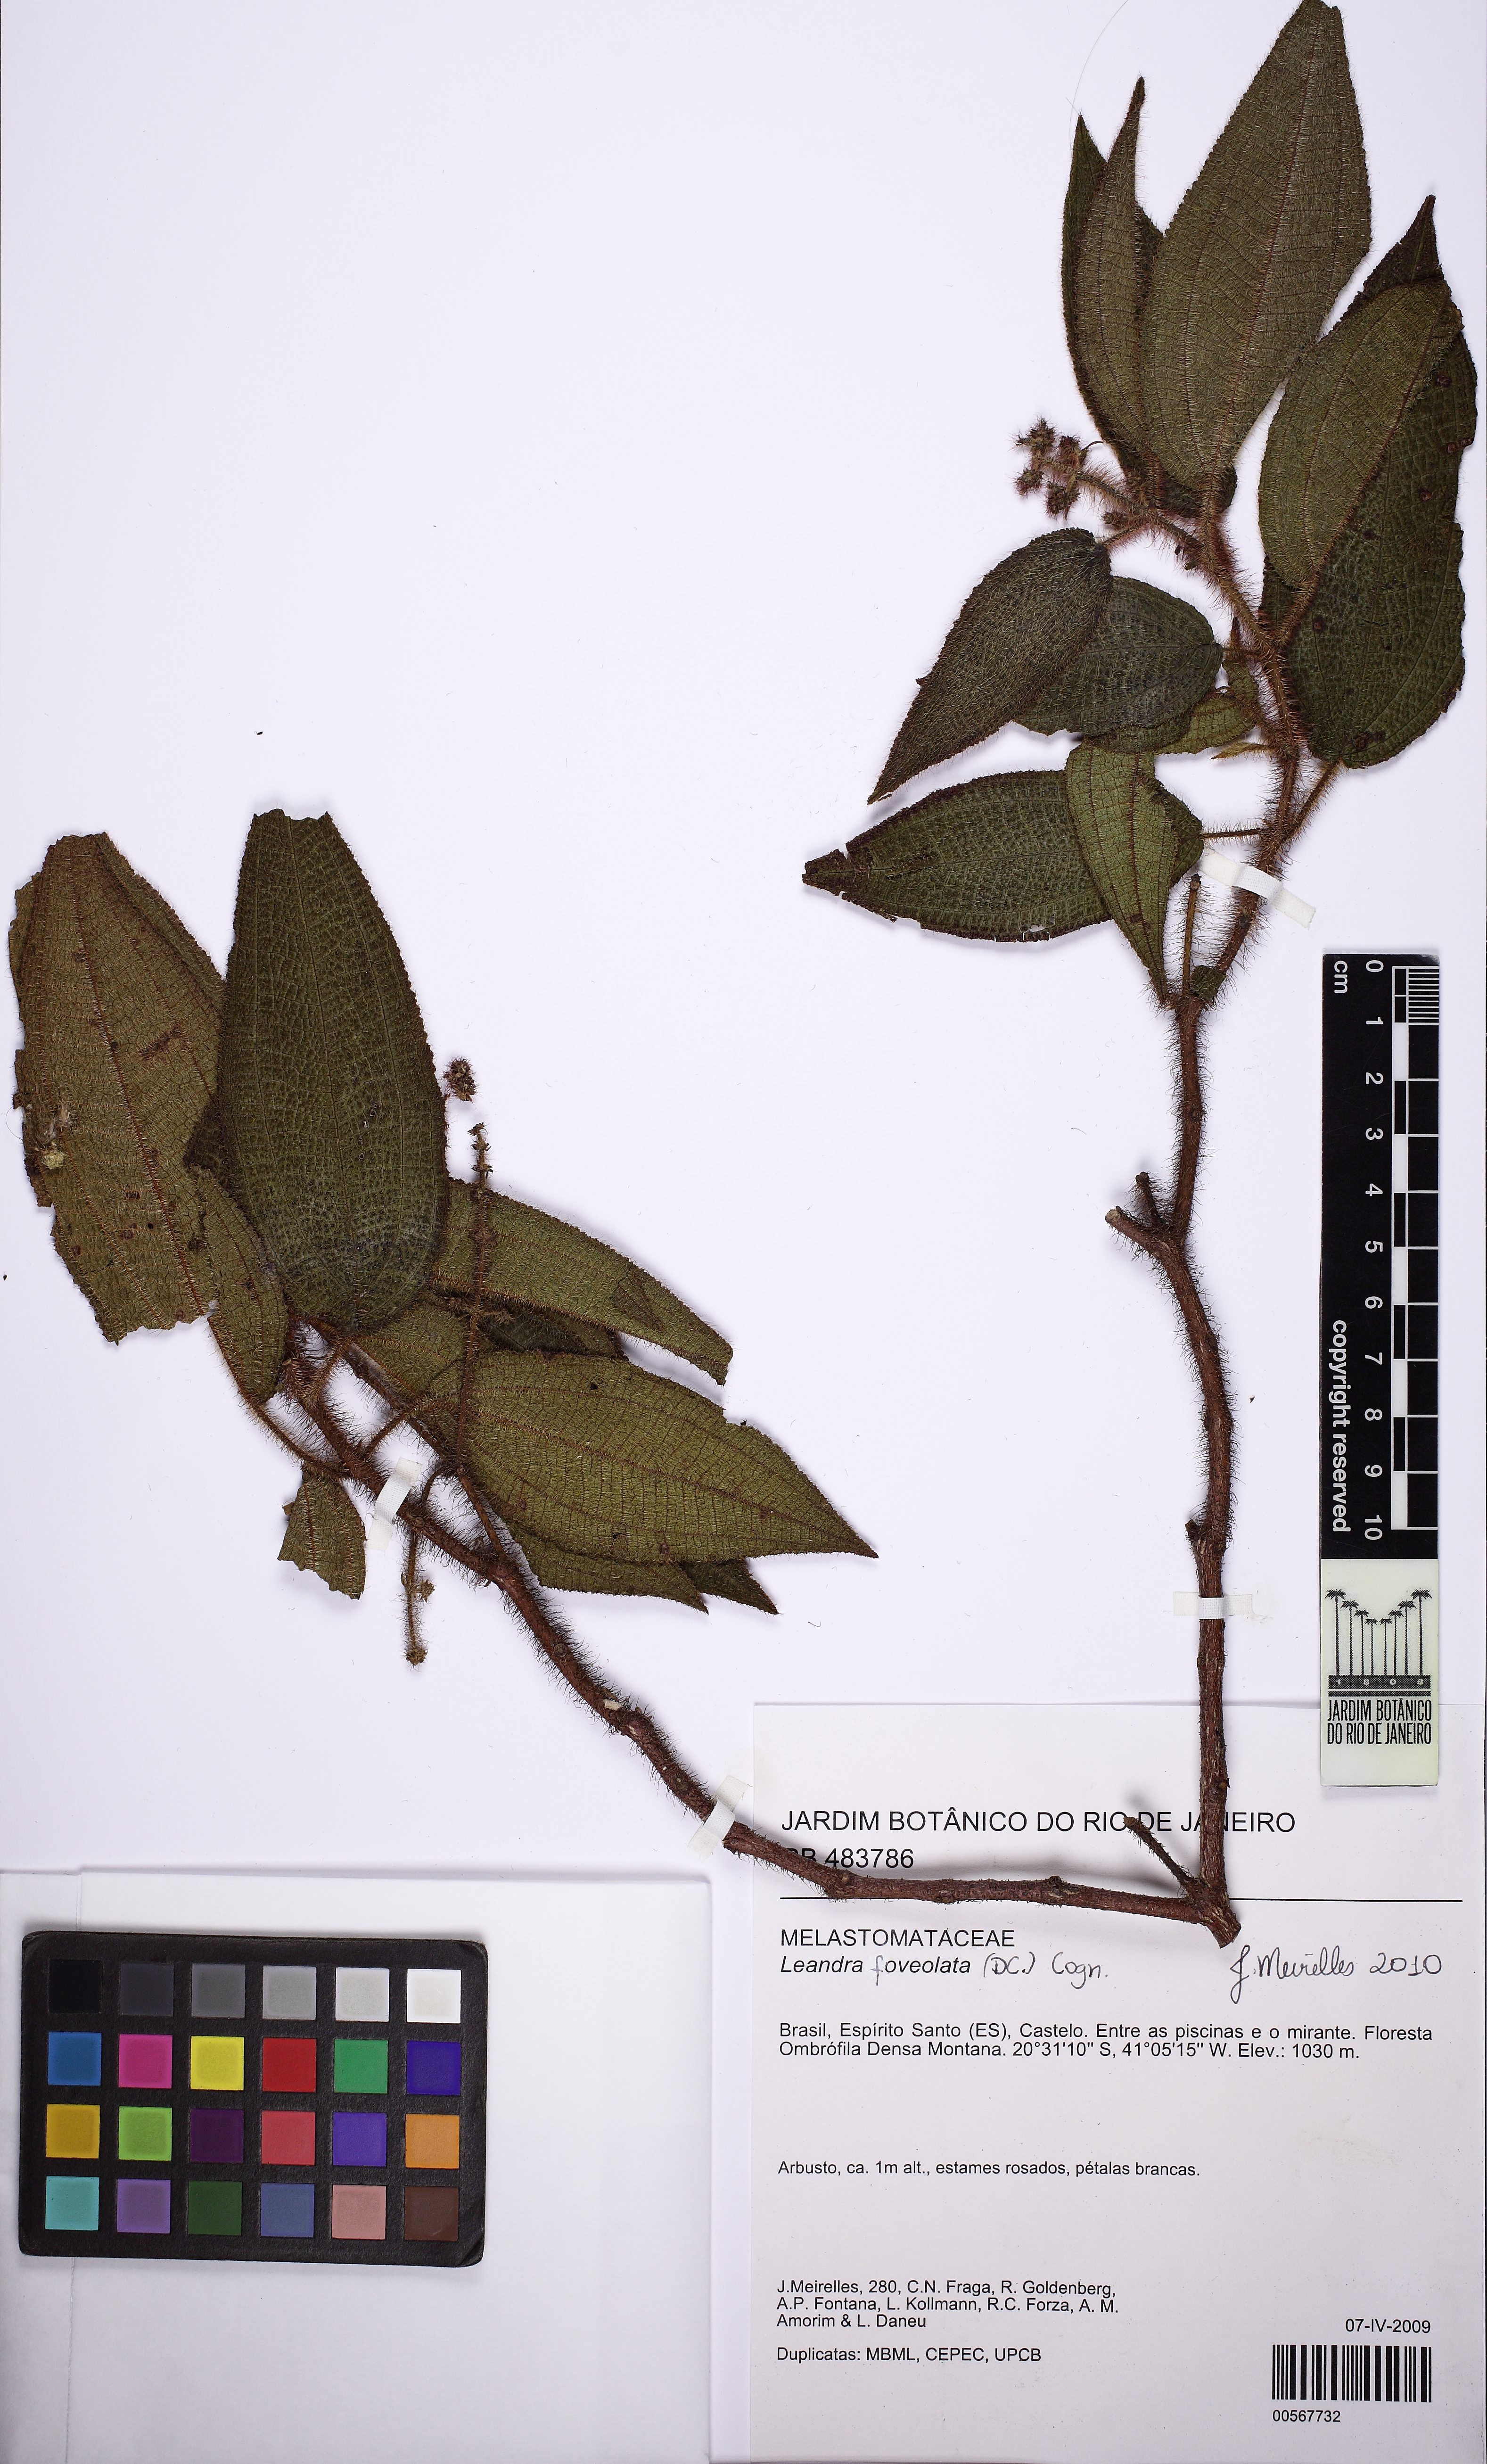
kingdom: Plantae
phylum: Tracheophyta
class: Magnoliopsida
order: Myrtales
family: Melastomataceae
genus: Miconia
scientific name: Miconia leafoveolata
